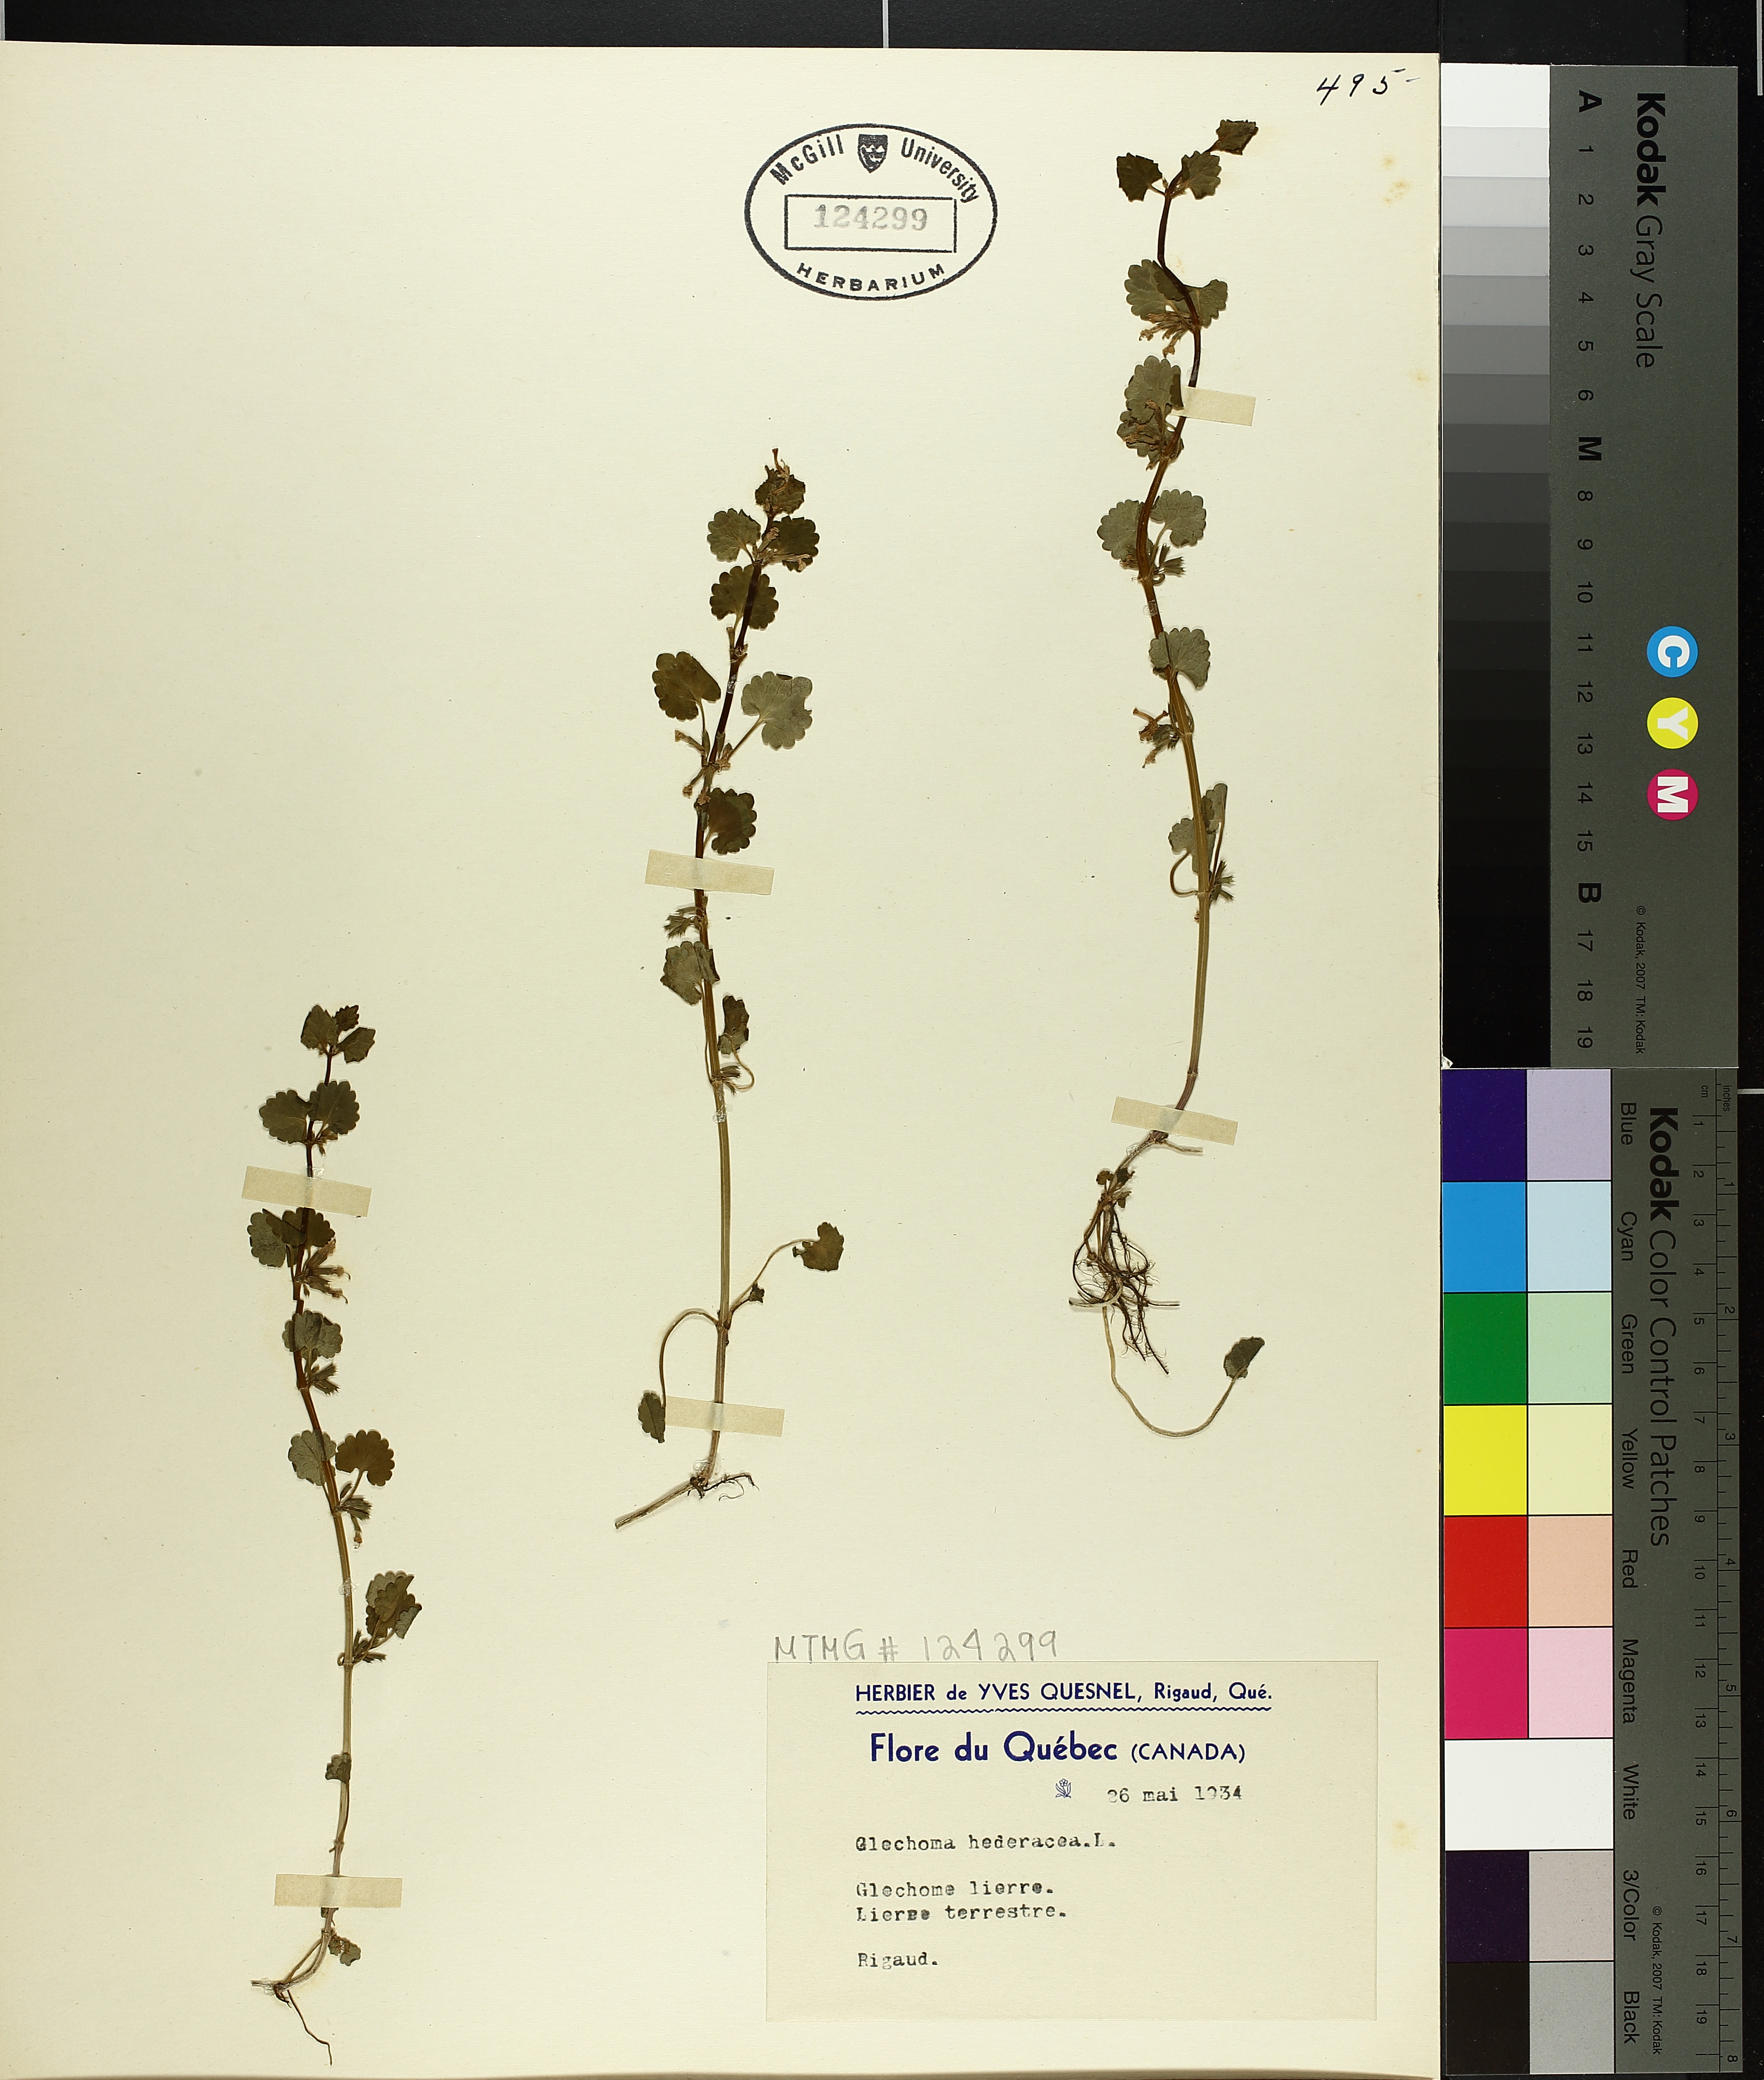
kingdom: Plantae
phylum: Tracheophyta
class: Magnoliopsida
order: Lamiales
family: Lamiaceae
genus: Glechoma
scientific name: Glechoma hederacea
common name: Ground ivy
